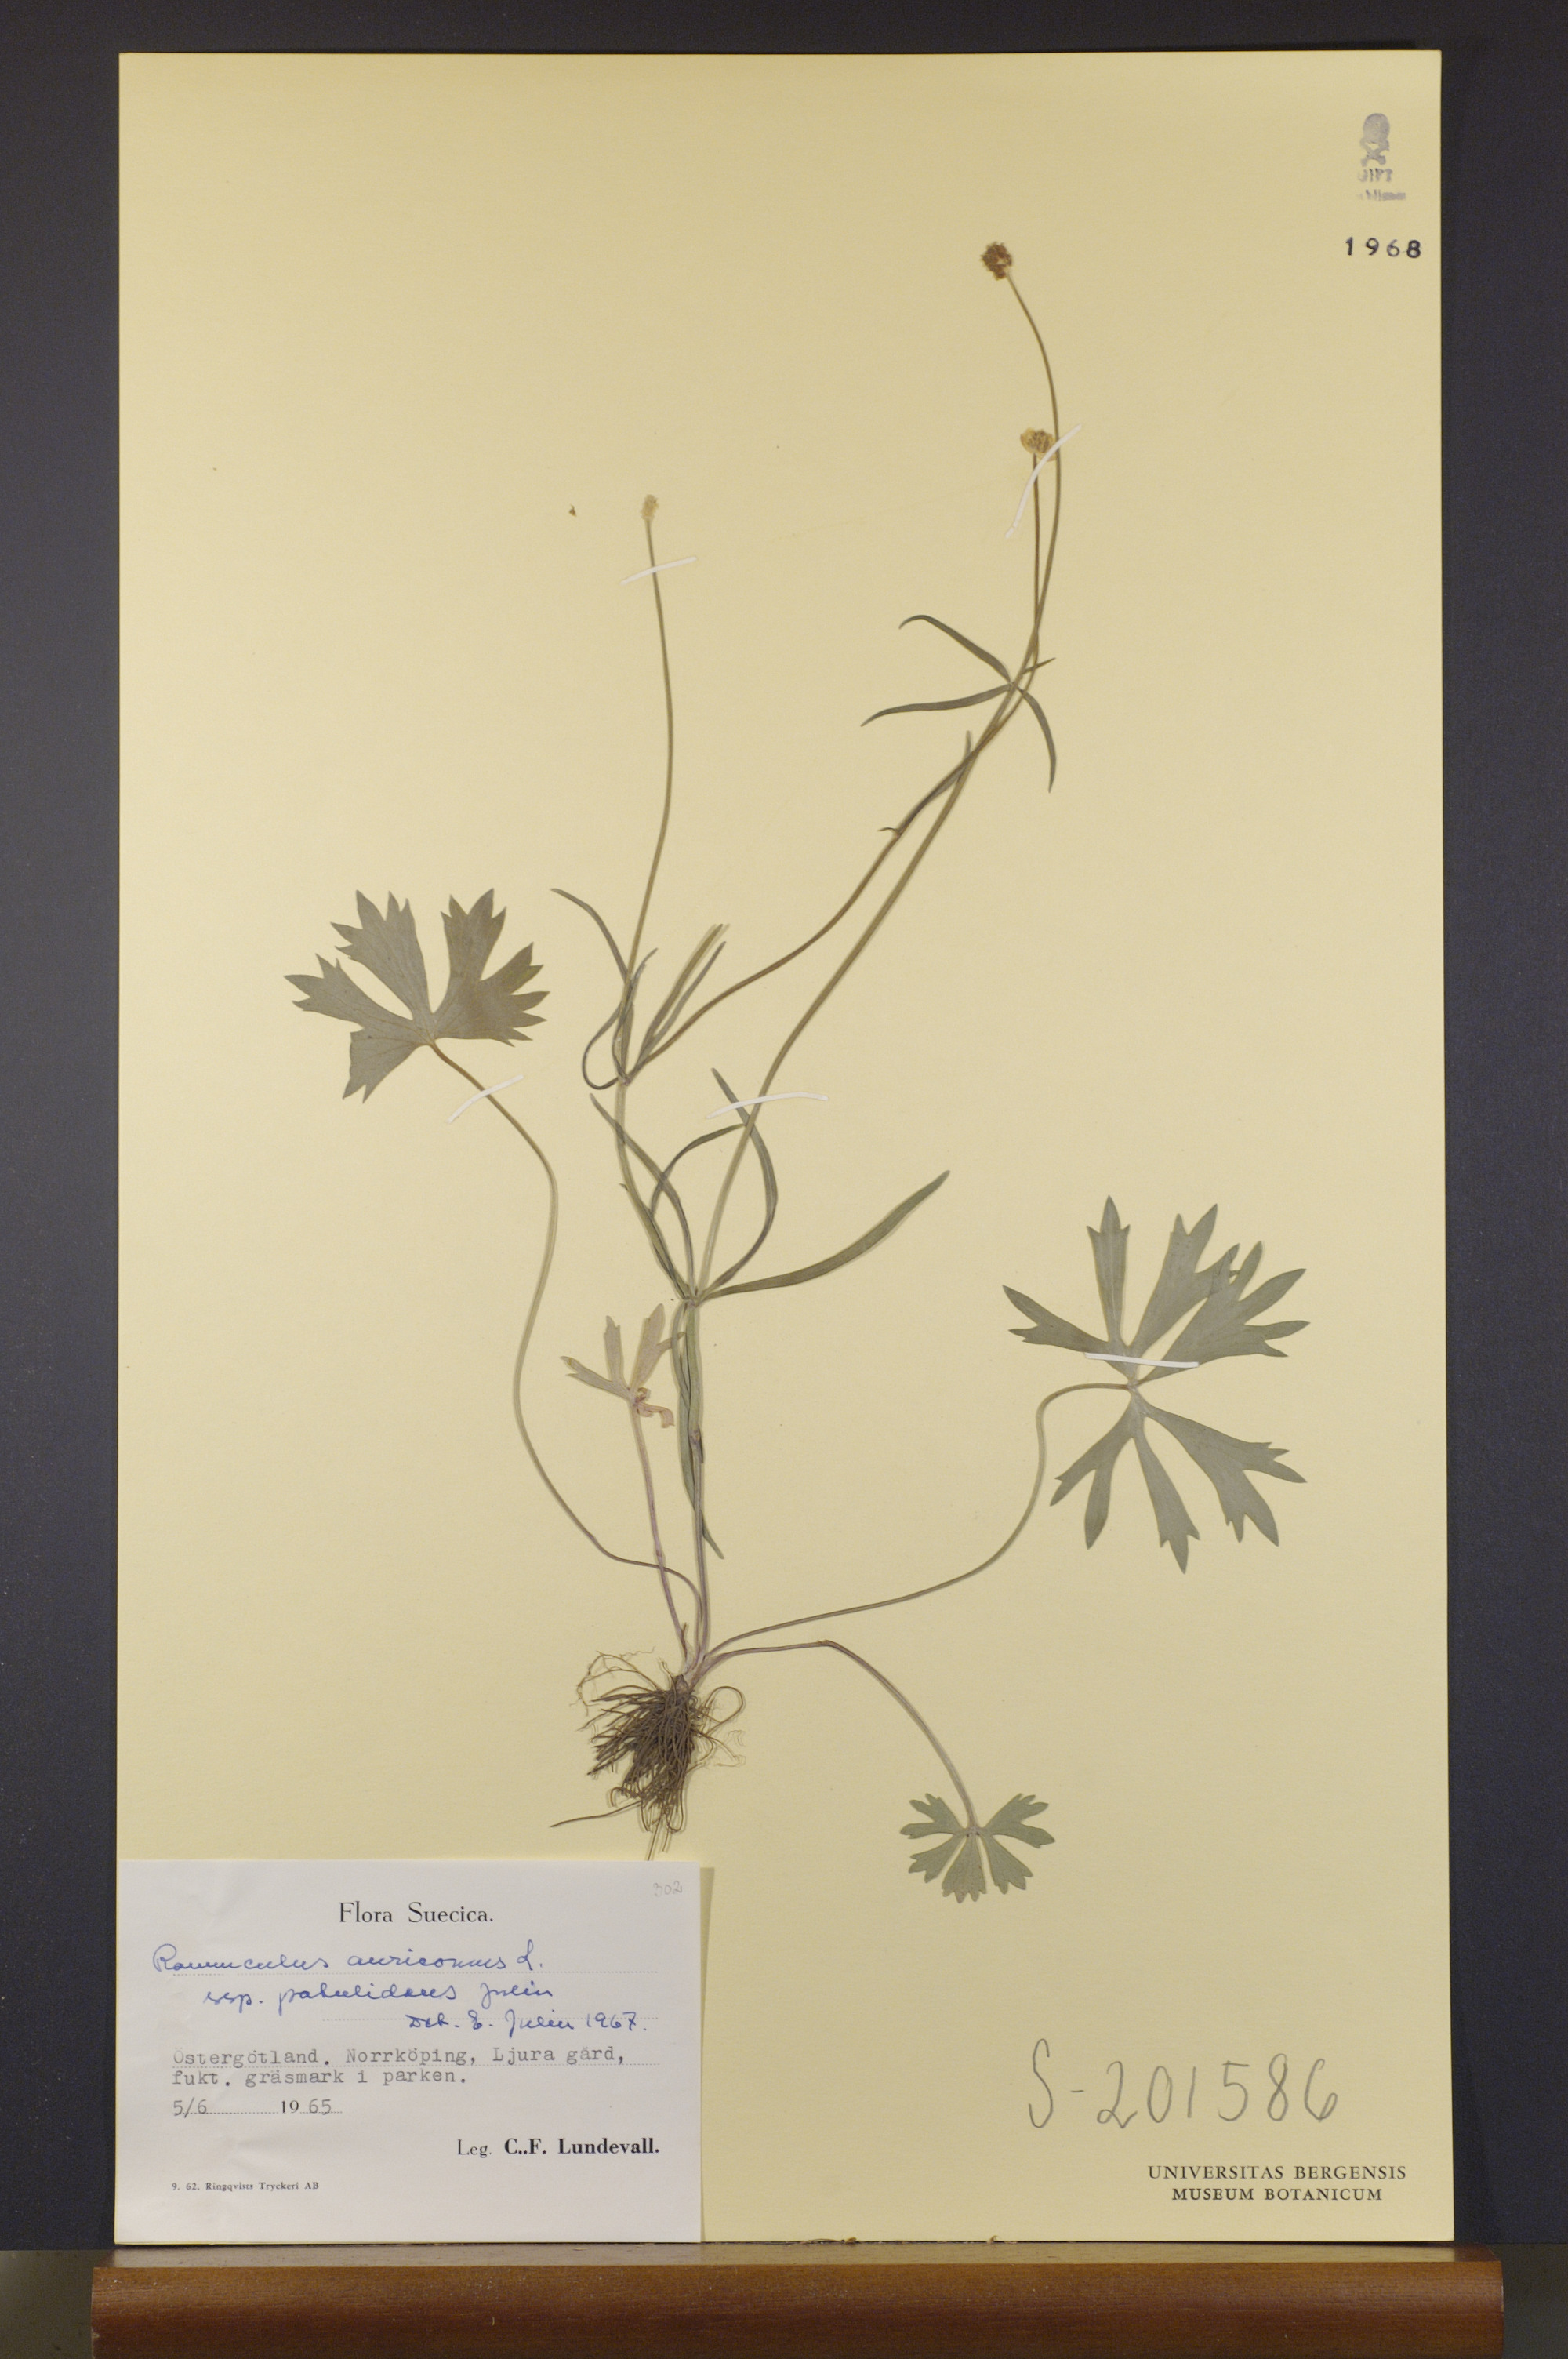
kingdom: Plantae
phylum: Tracheophyta
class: Magnoliopsida
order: Ranunculales
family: Ranunculaceae
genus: Ranunculus
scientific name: Ranunculus patulidens
